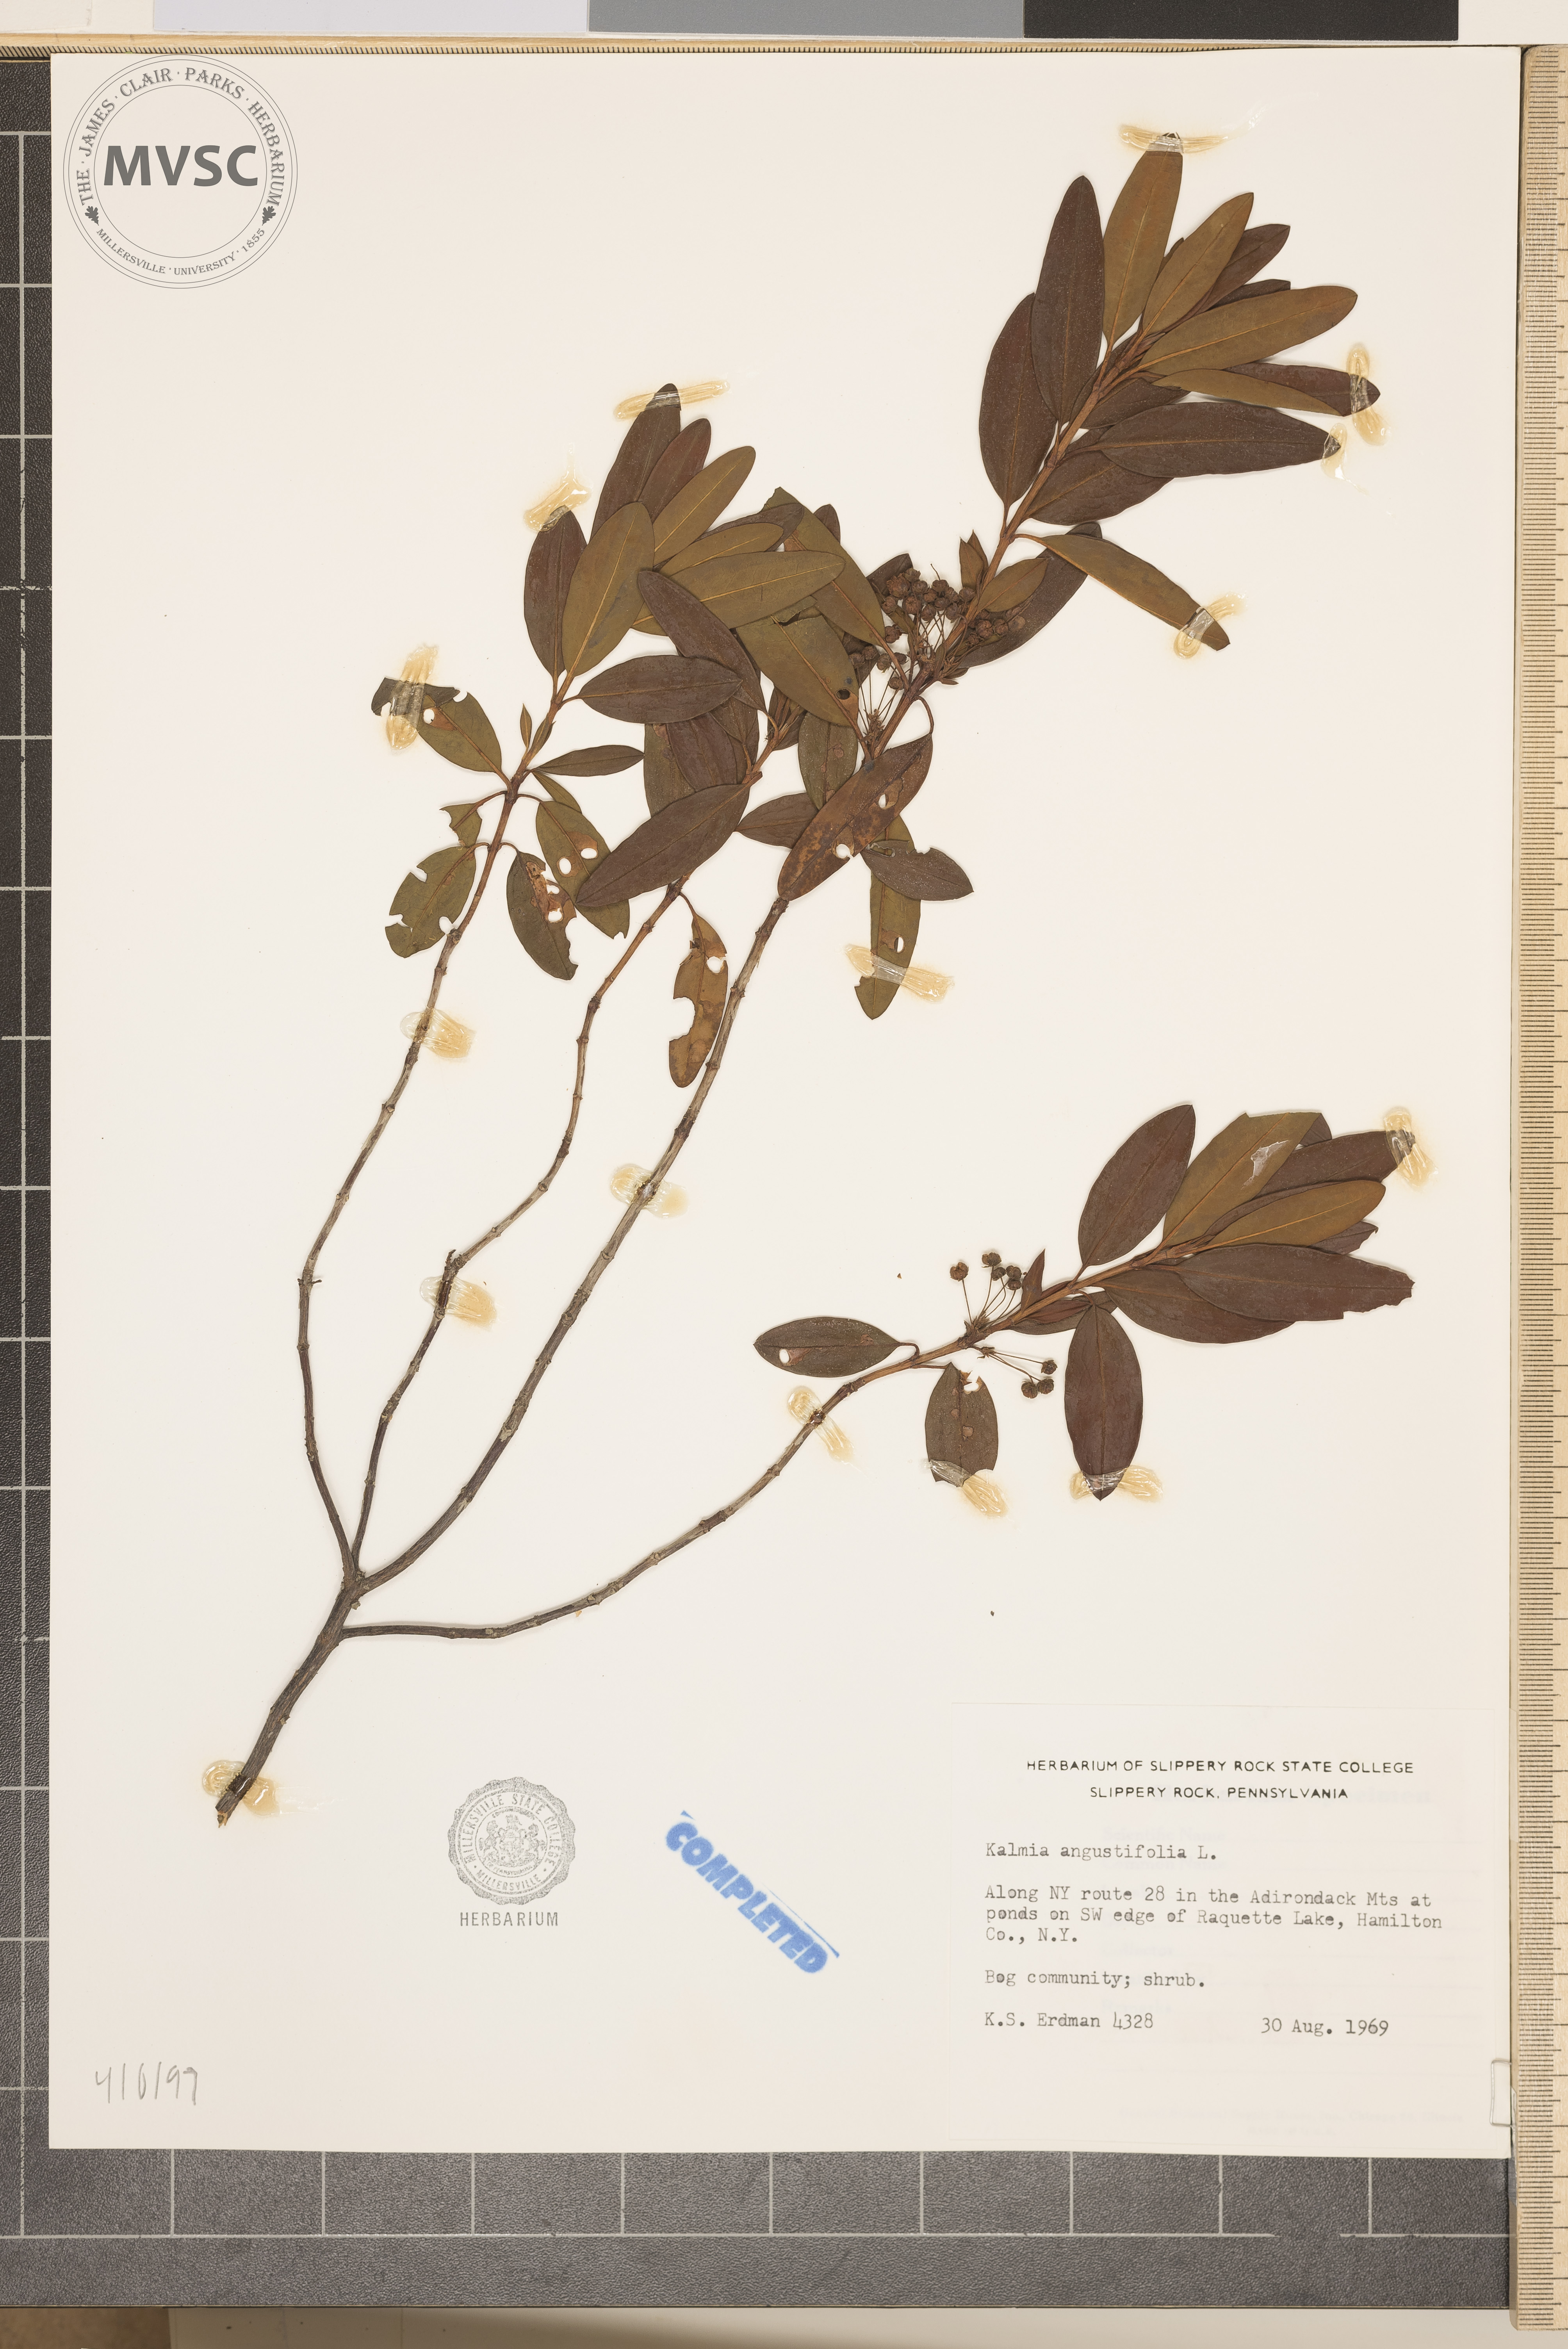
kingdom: Plantae
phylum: Tracheophyta
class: Magnoliopsida
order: Ericales
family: Ericaceae
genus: Kalmia
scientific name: Kalmia angustifolia
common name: Sheep-laurel
